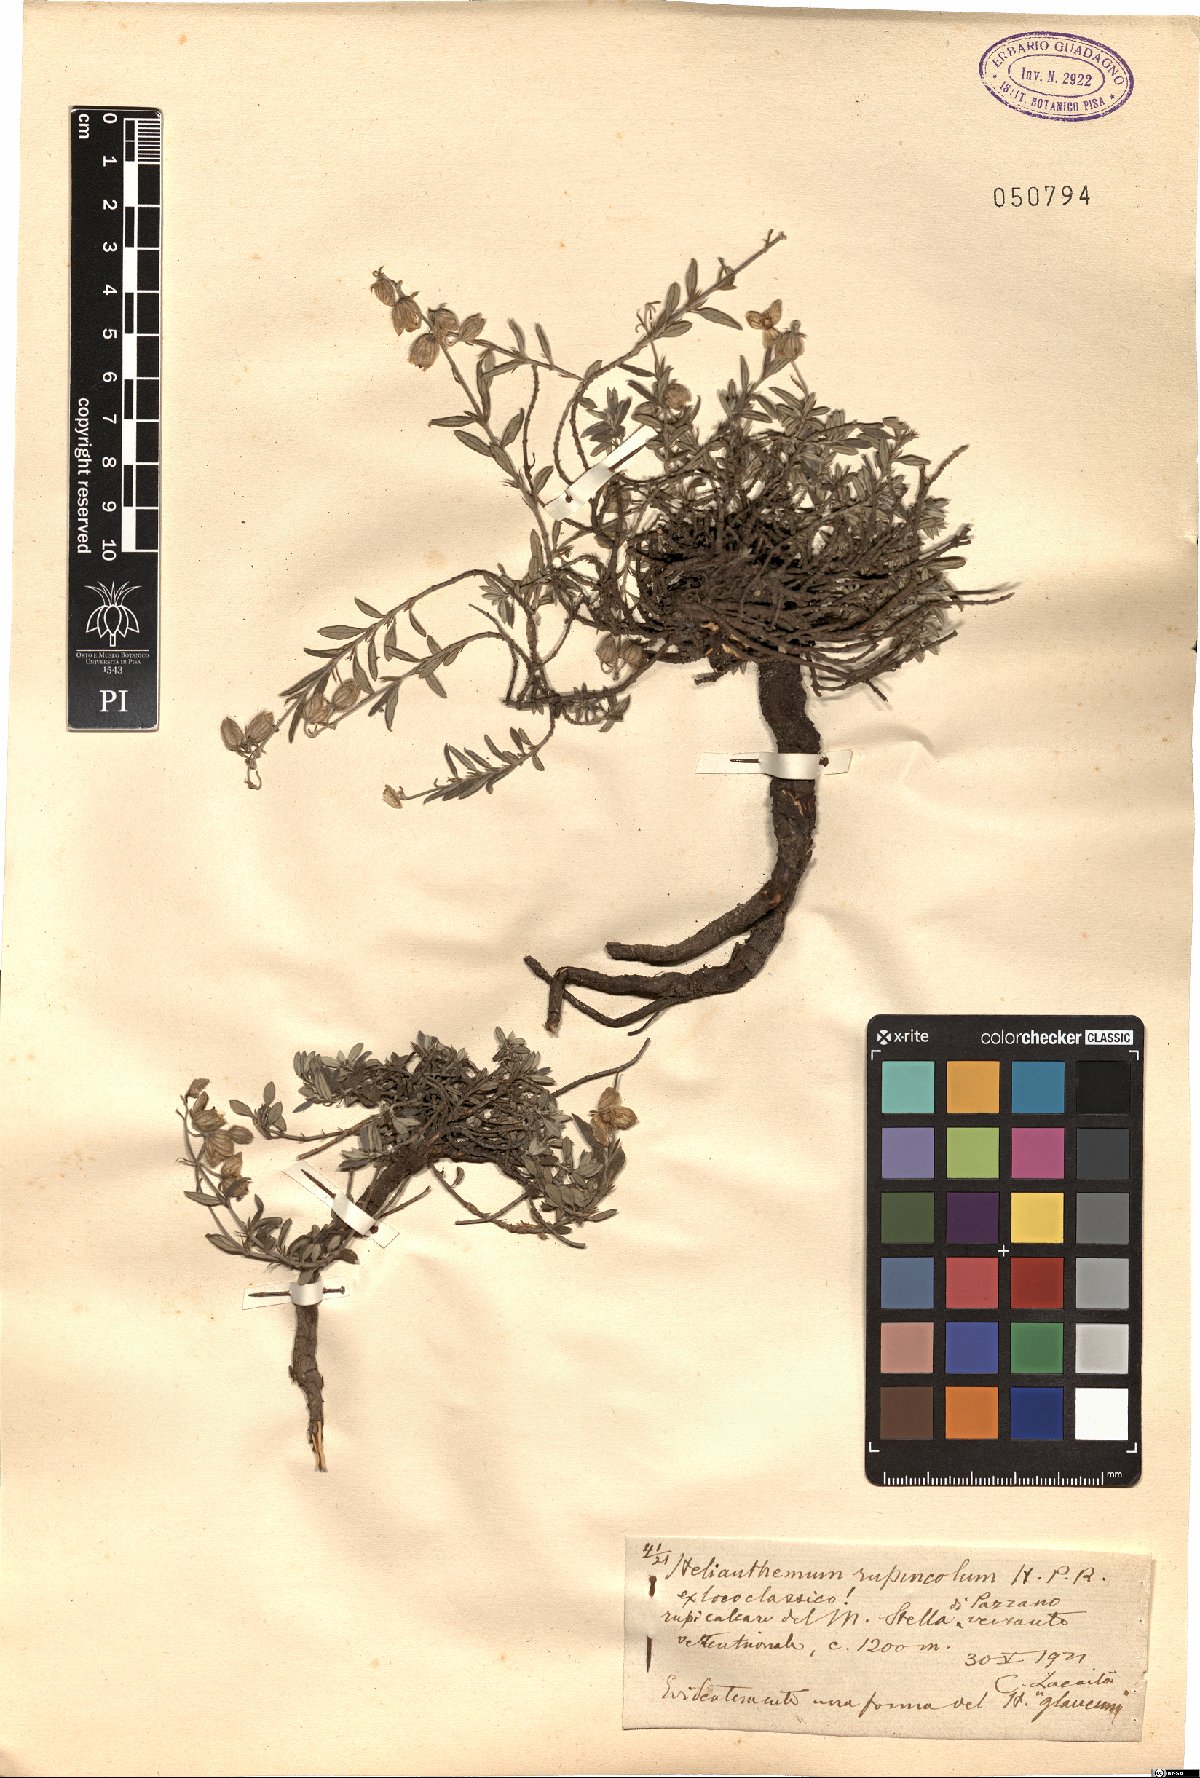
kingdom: Plantae
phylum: Tracheophyta
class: Magnoliopsida
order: Malvales
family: Cistaceae
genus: Helianthemum
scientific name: Helianthemum rupincola
